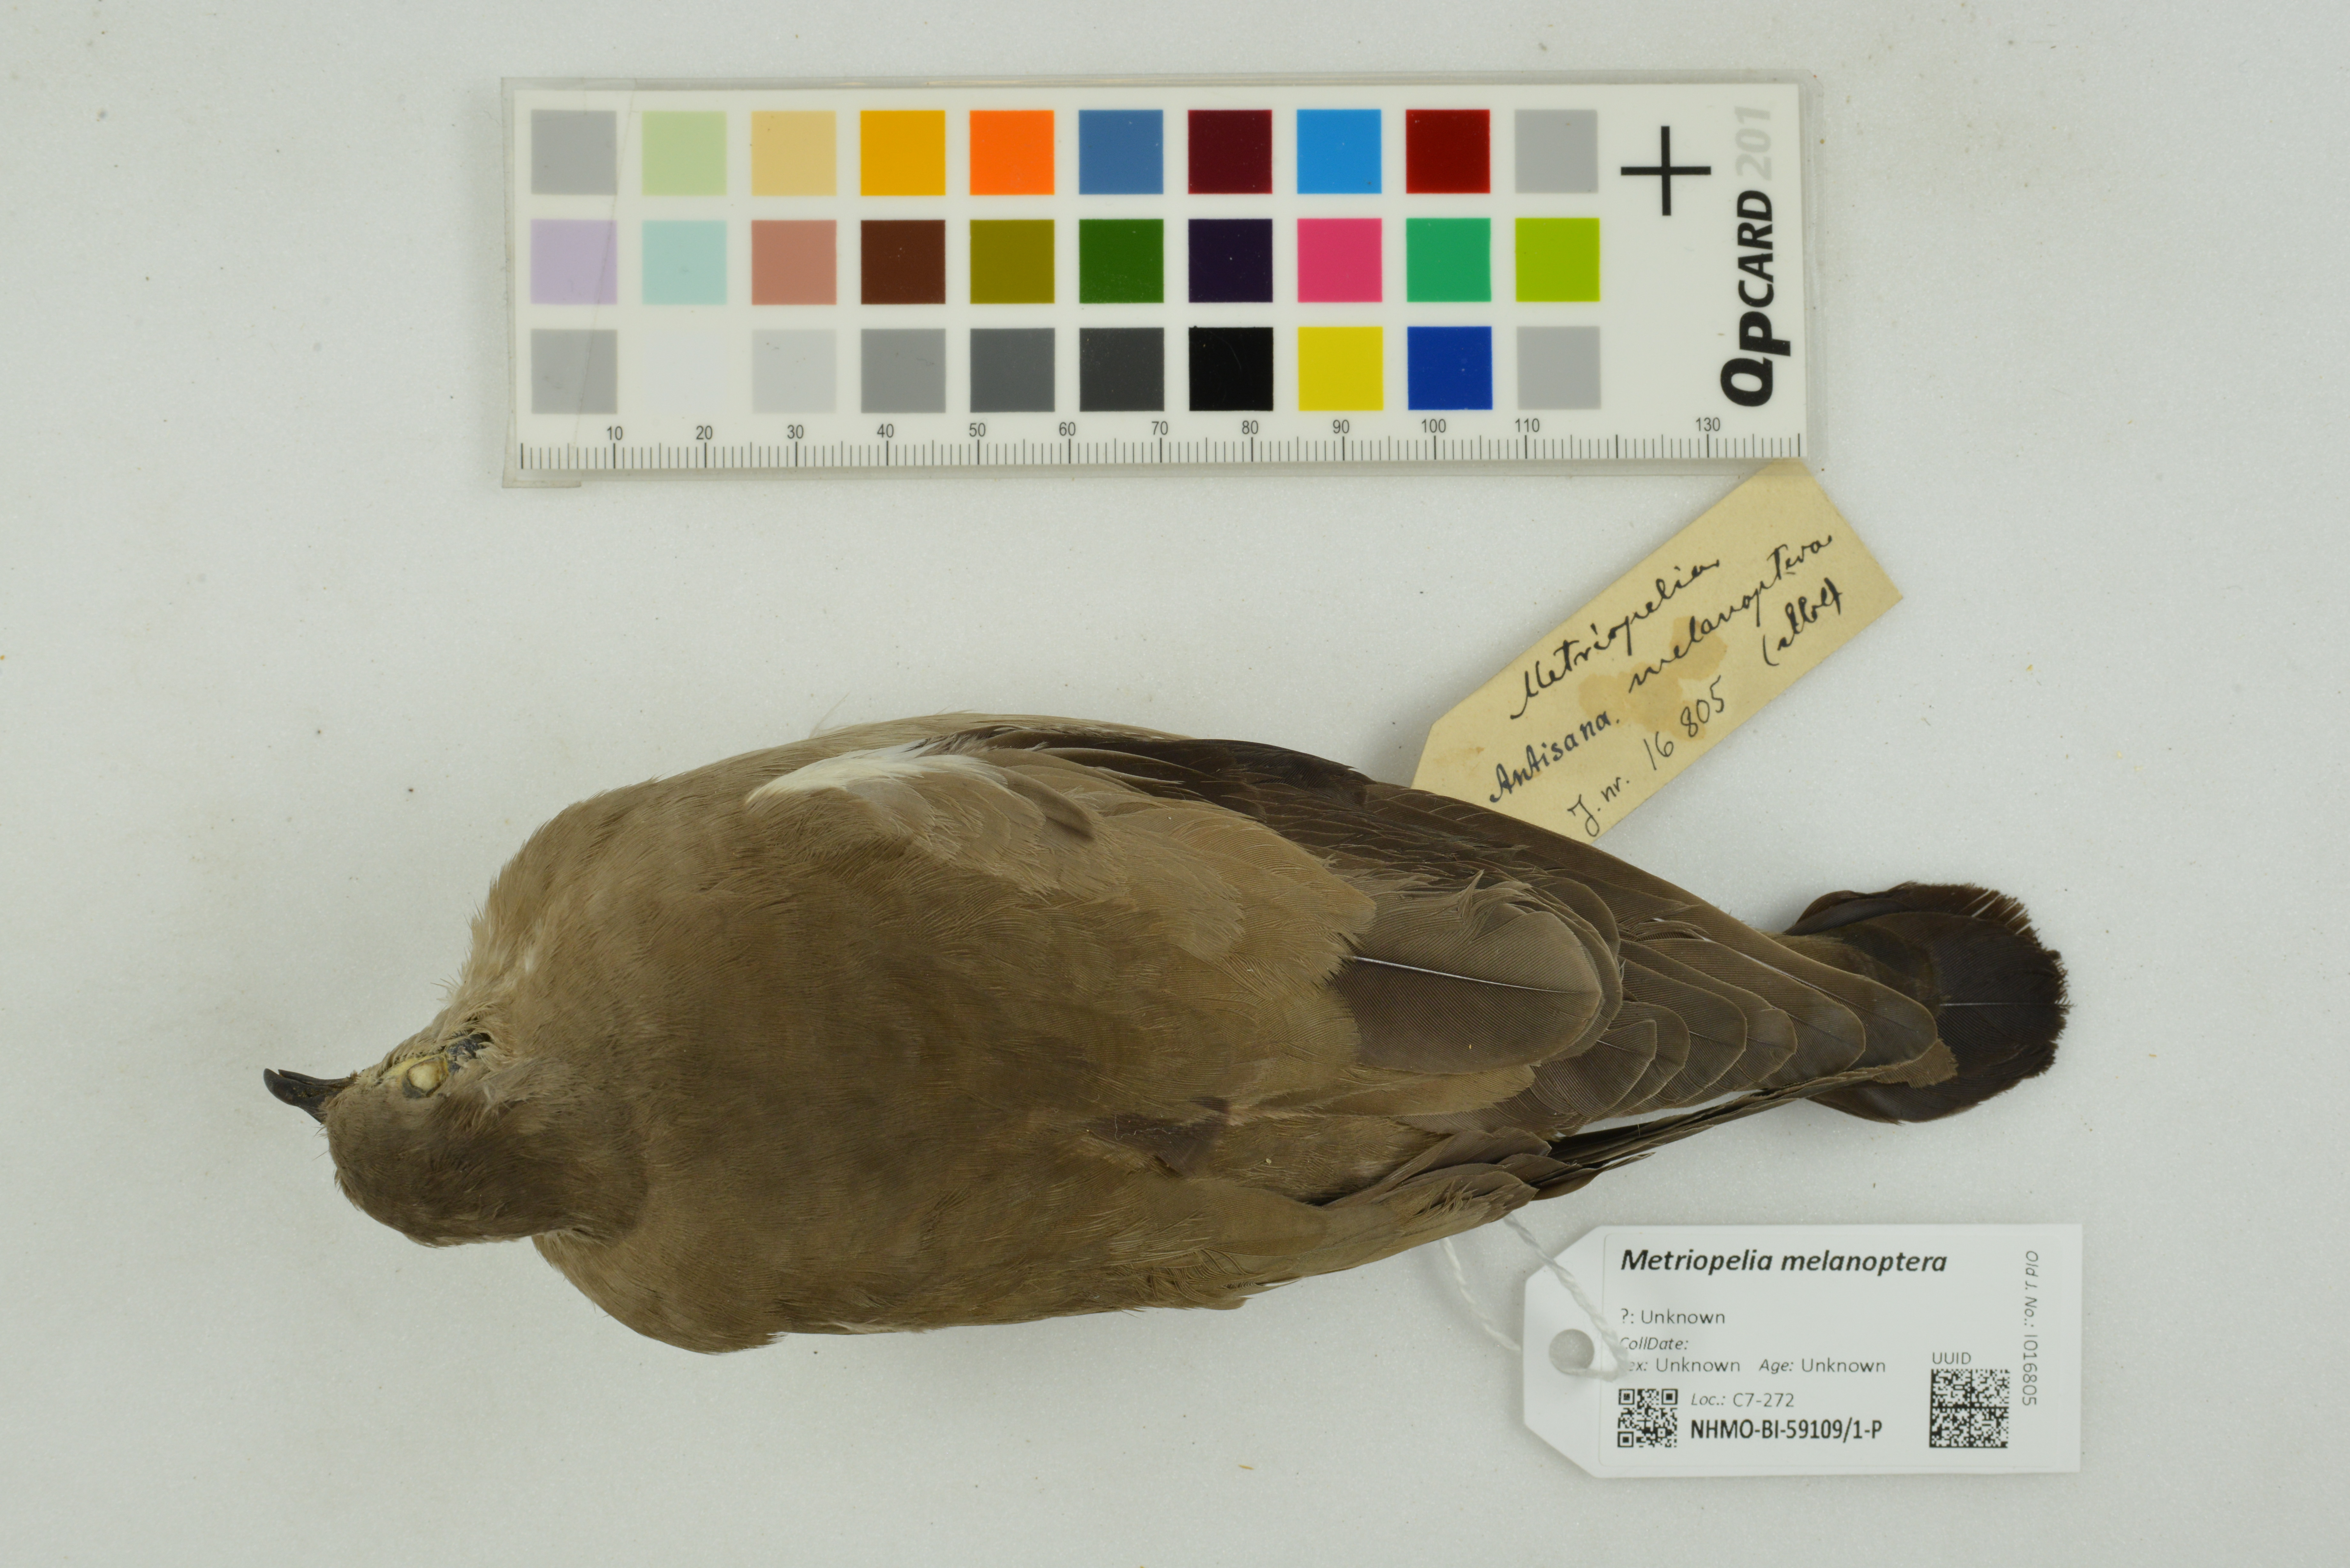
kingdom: Animalia
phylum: Chordata
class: Aves
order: Columbiformes
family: Columbidae
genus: Metriopelia
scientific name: Metriopelia melanoptera
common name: Black-winged ground dove
